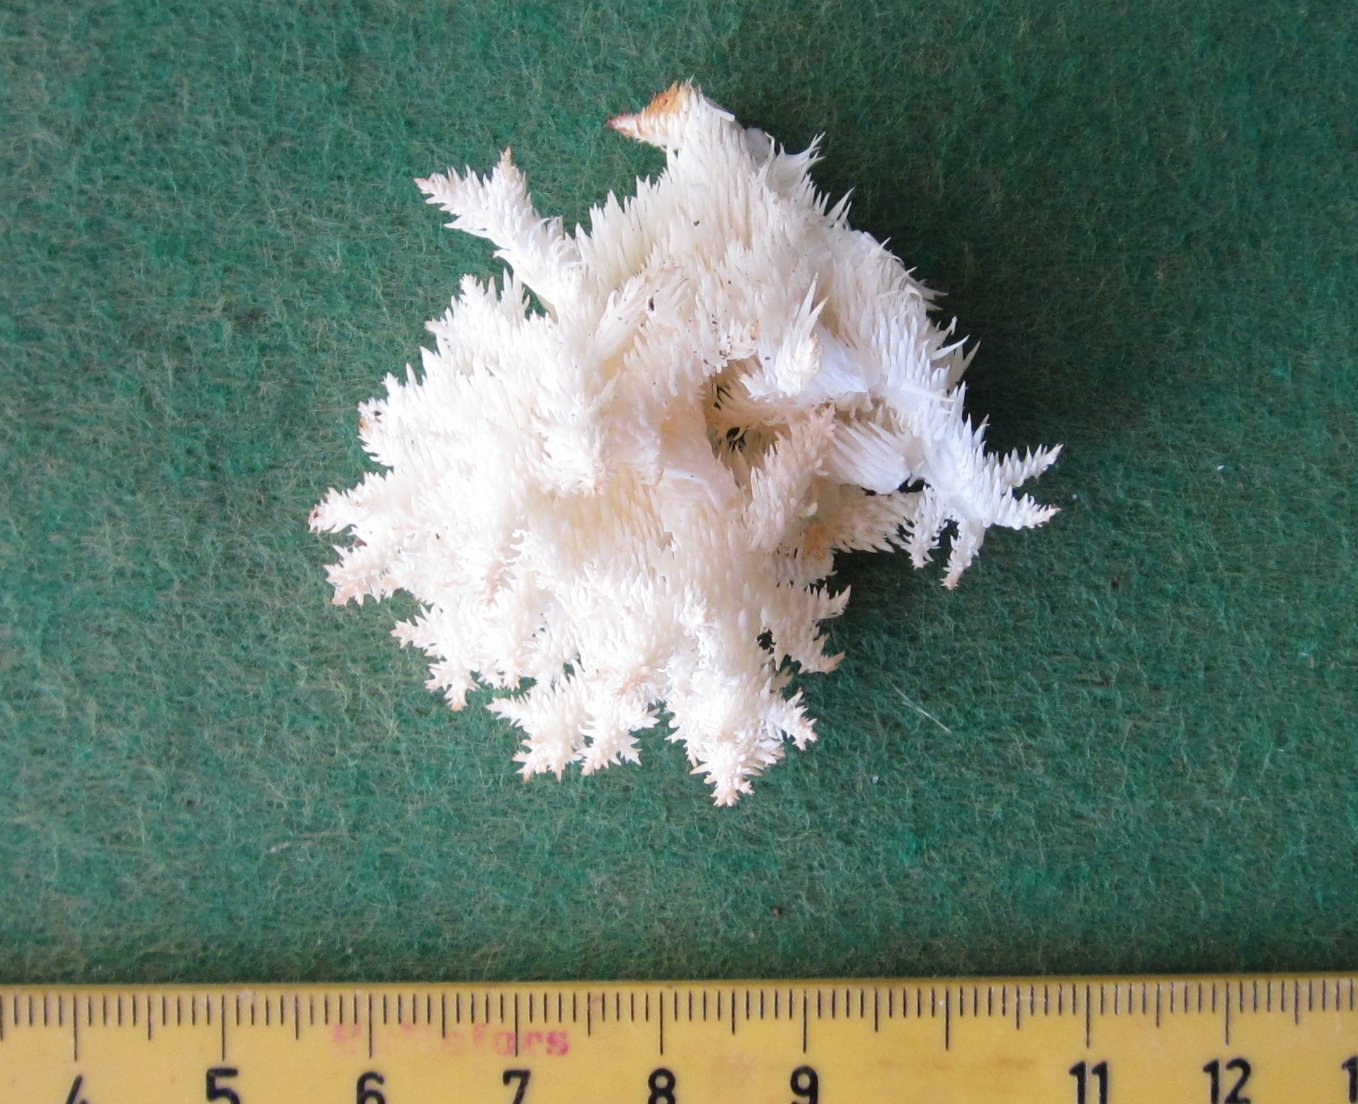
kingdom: Fungi
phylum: Basidiomycota
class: Agaricomycetes
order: Russulales
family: Hericiaceae
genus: Hericium
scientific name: Hericium coralloides
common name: koralpigsvamp
